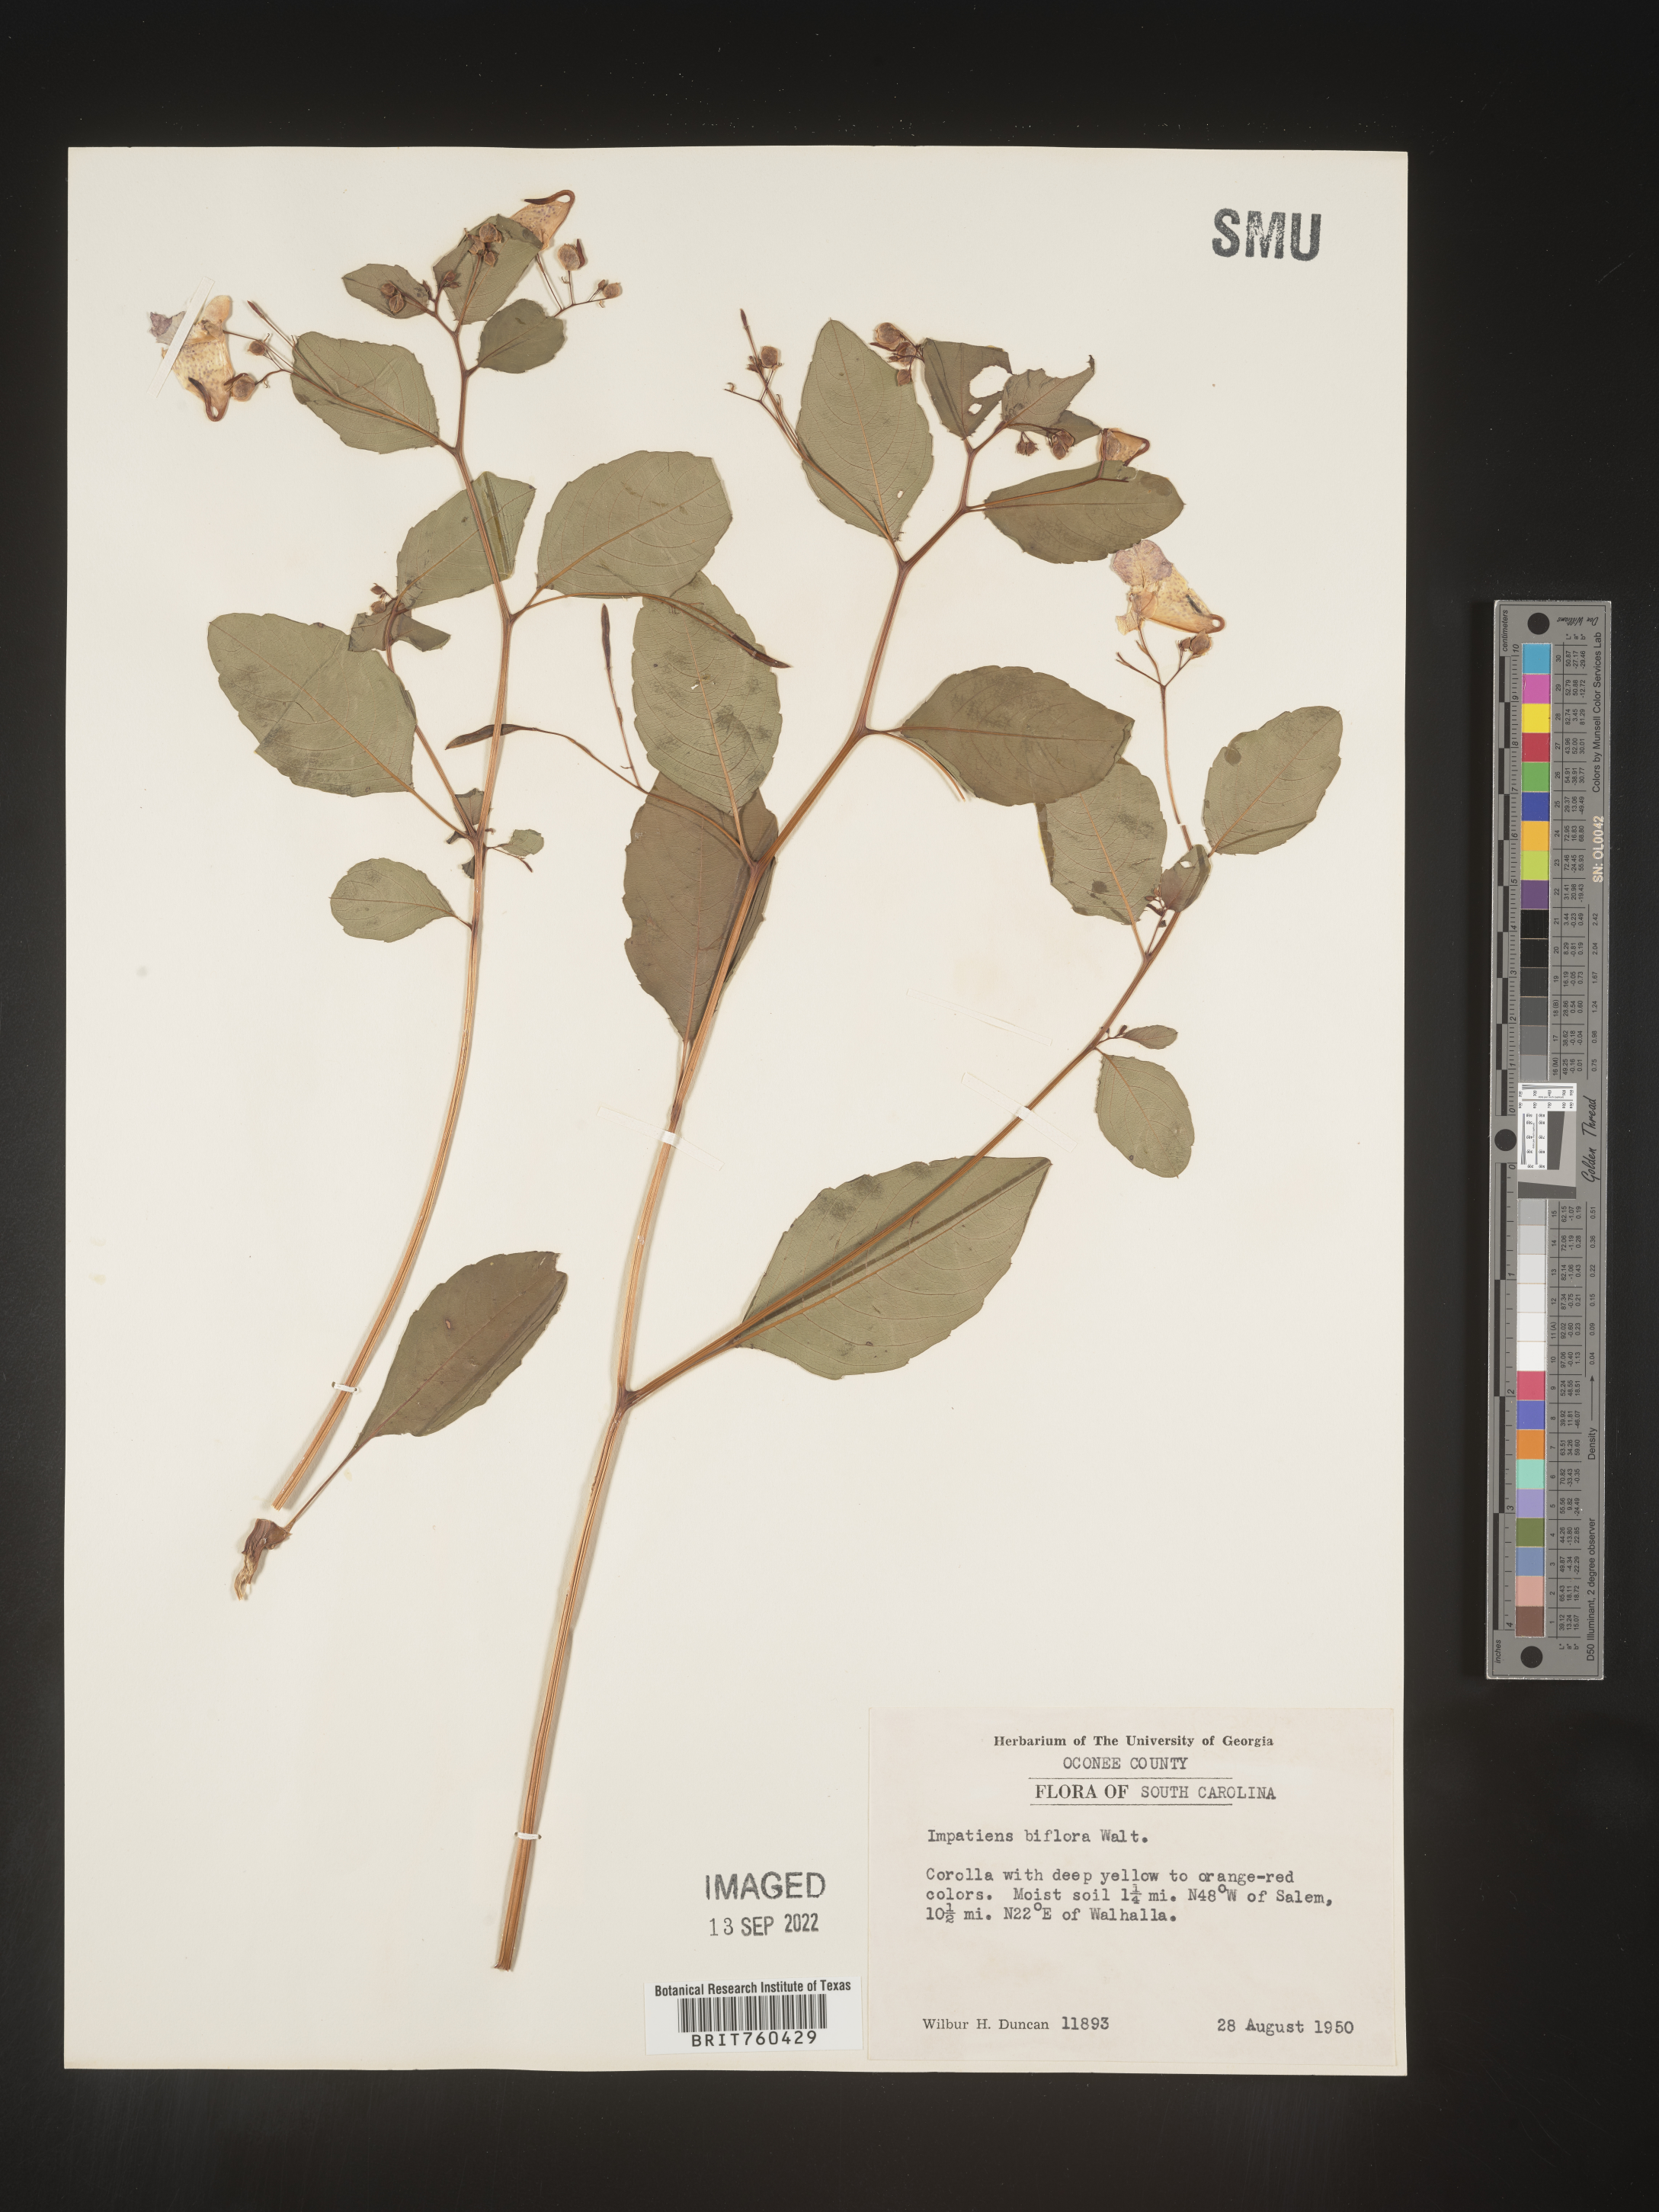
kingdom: Plantae
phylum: Tracheophyta
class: Magnoliopsida
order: Ericales
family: Balsaminaceae
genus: Impatiens
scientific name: Impatiens capensis
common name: Orange balsam
